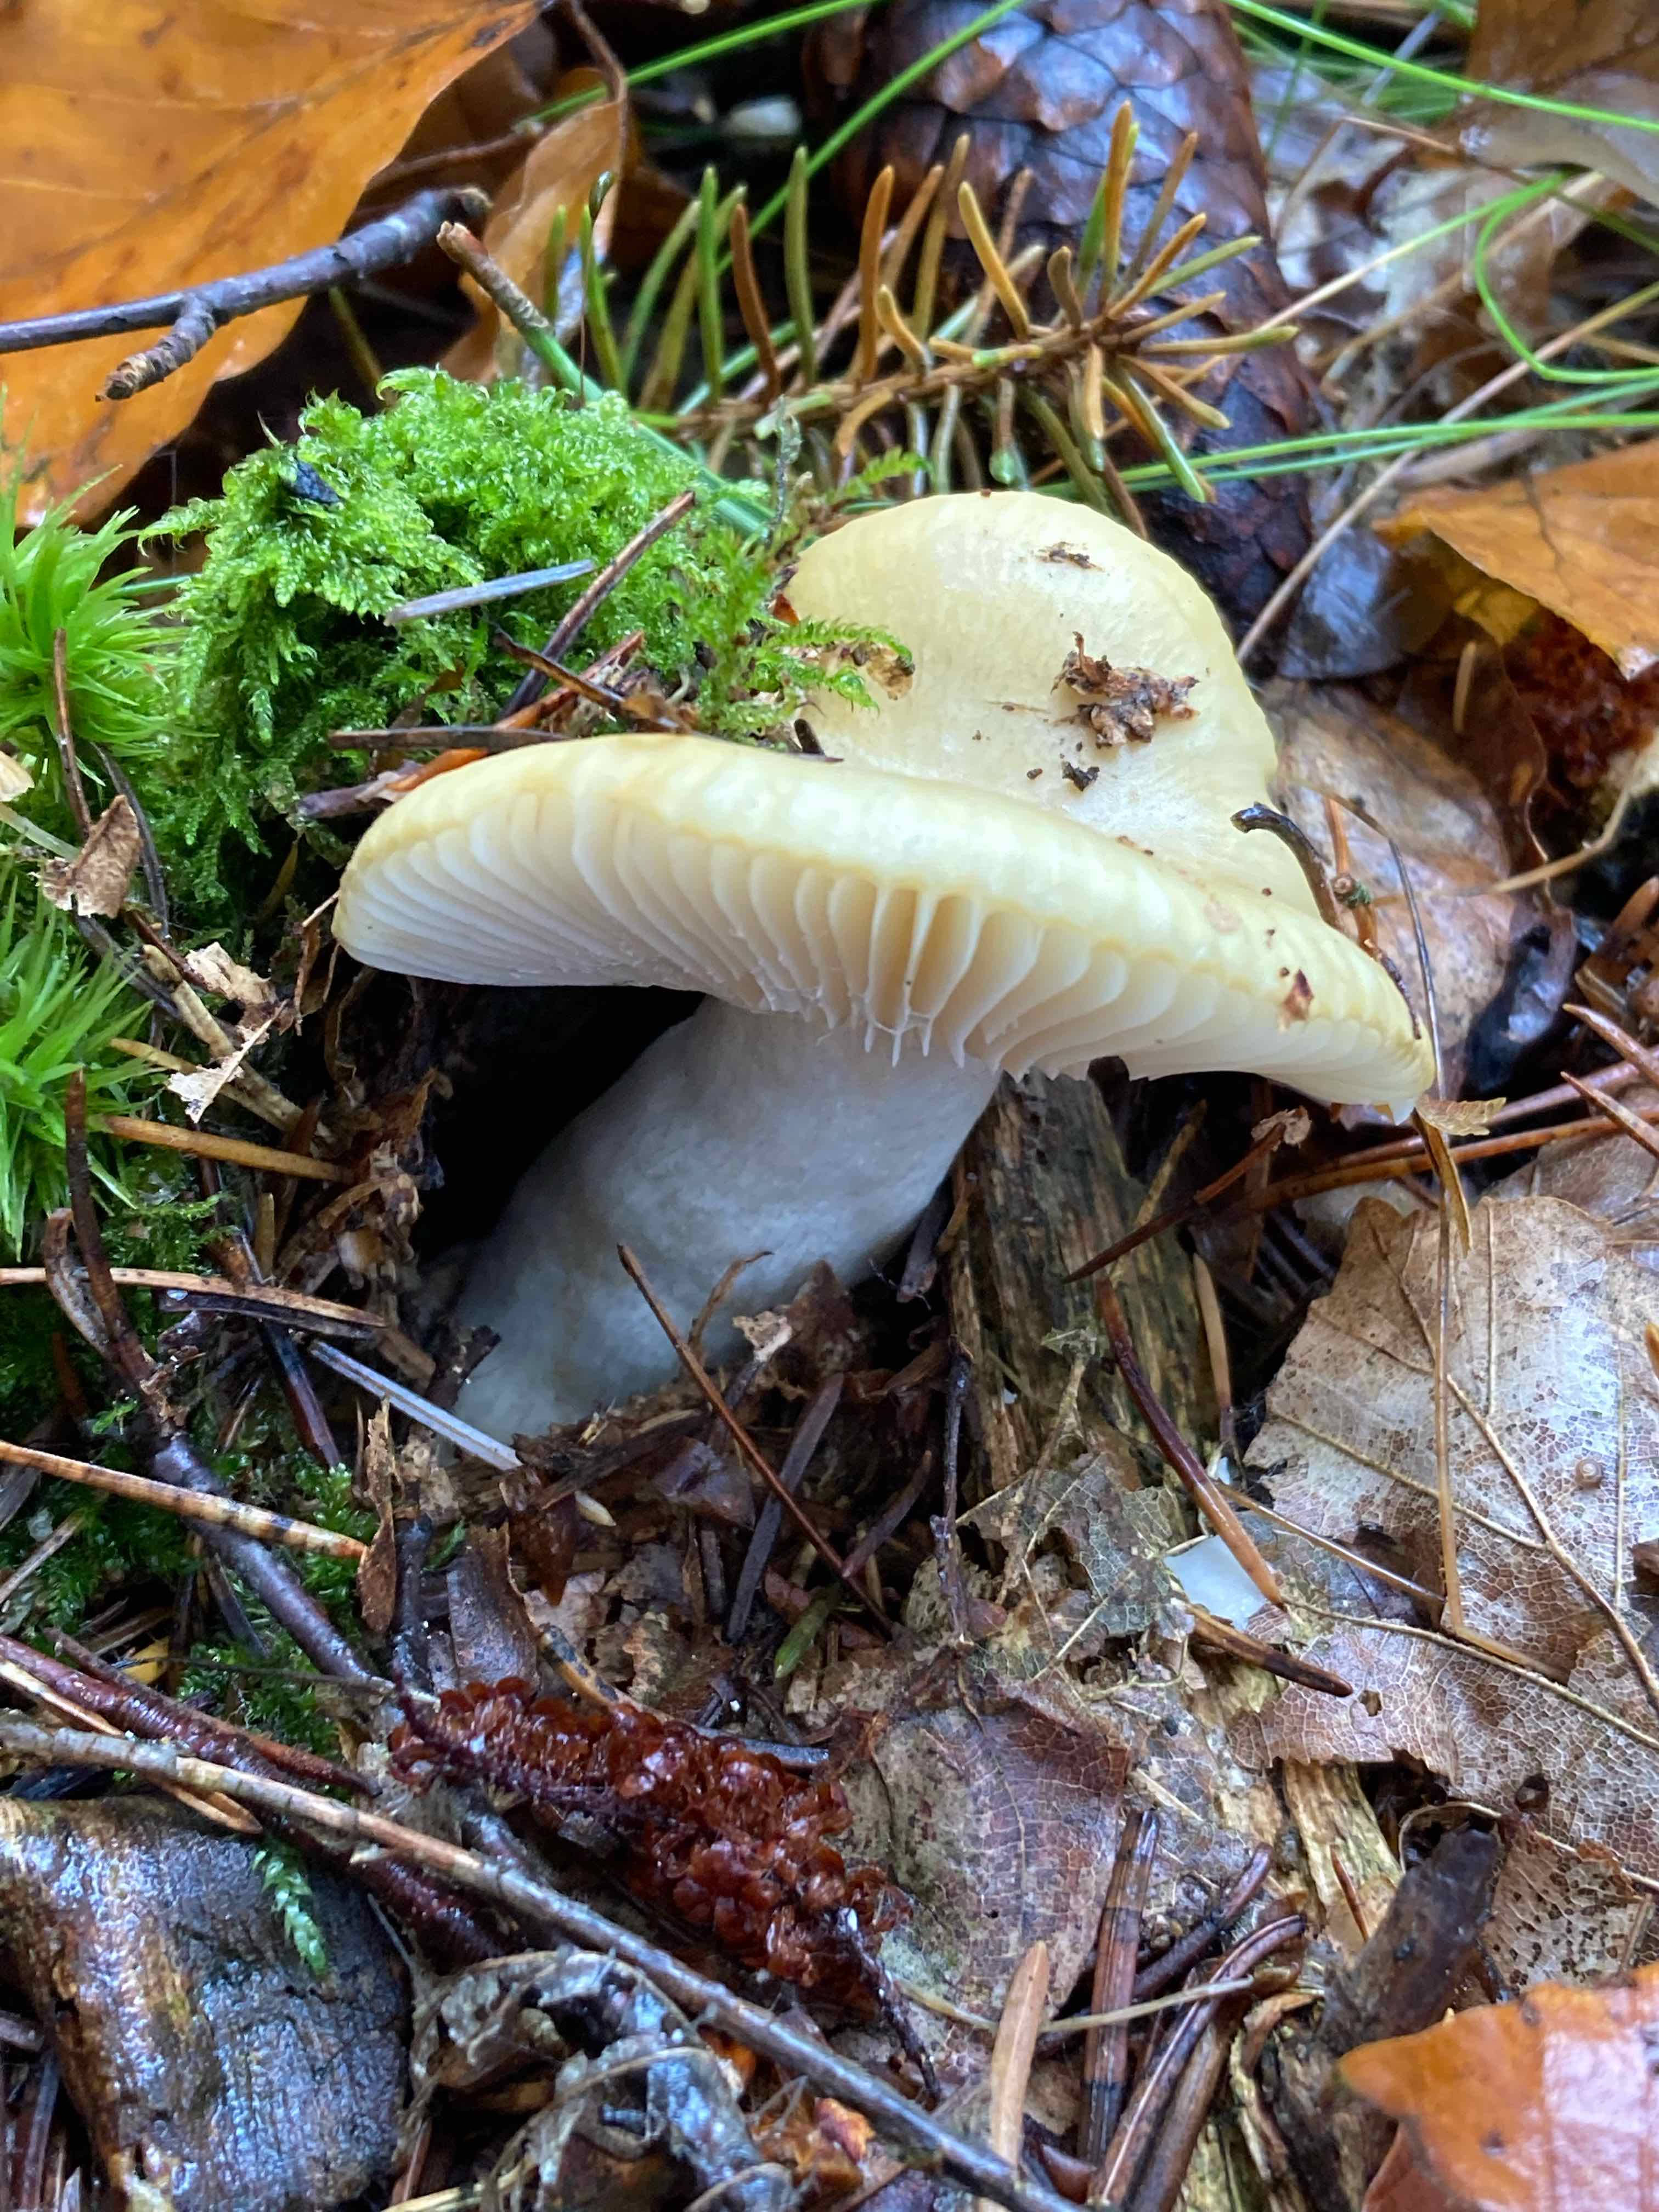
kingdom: Fungi
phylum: Basidiomycota
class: Agaricomycetes
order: Russulales
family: Russulaceae
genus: Russula
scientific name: Russula ochroleuca
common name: okkergul skørhat
